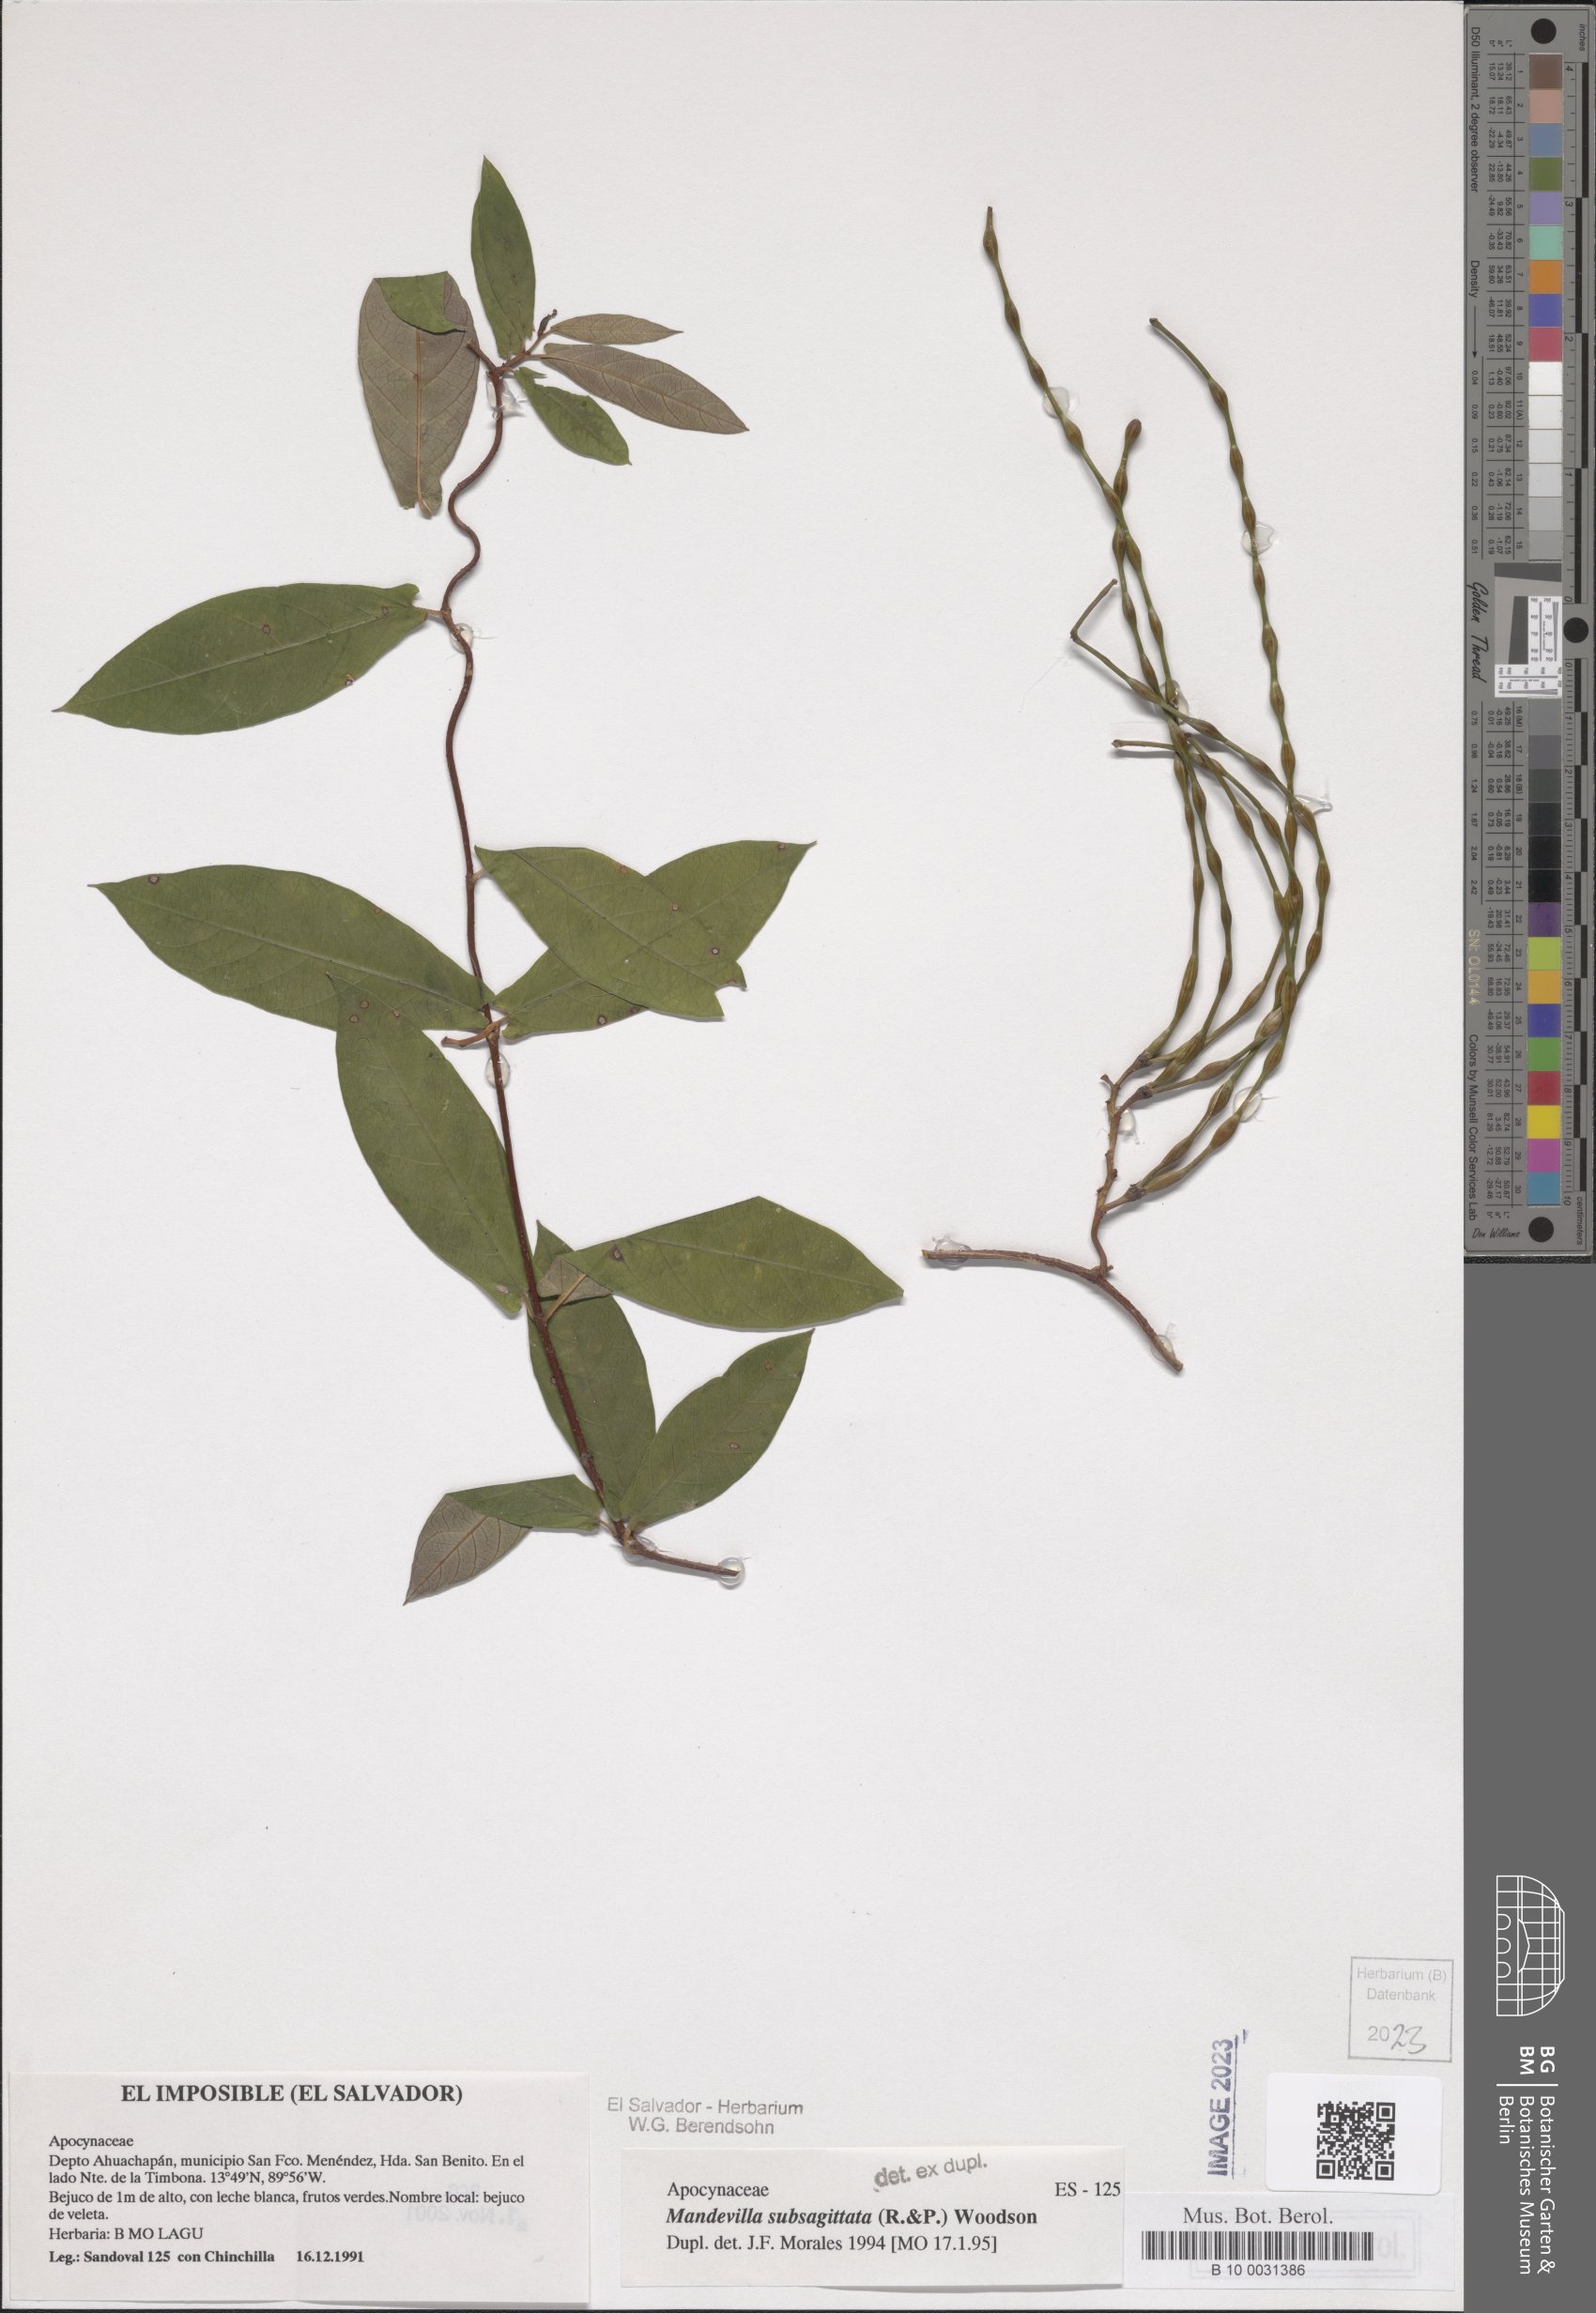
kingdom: Plantae
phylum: Tracheophyta
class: Magnoliopsida
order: Gentianales
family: Apocynaceae
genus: Mandevilla
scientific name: Mandevilla subsagittata
